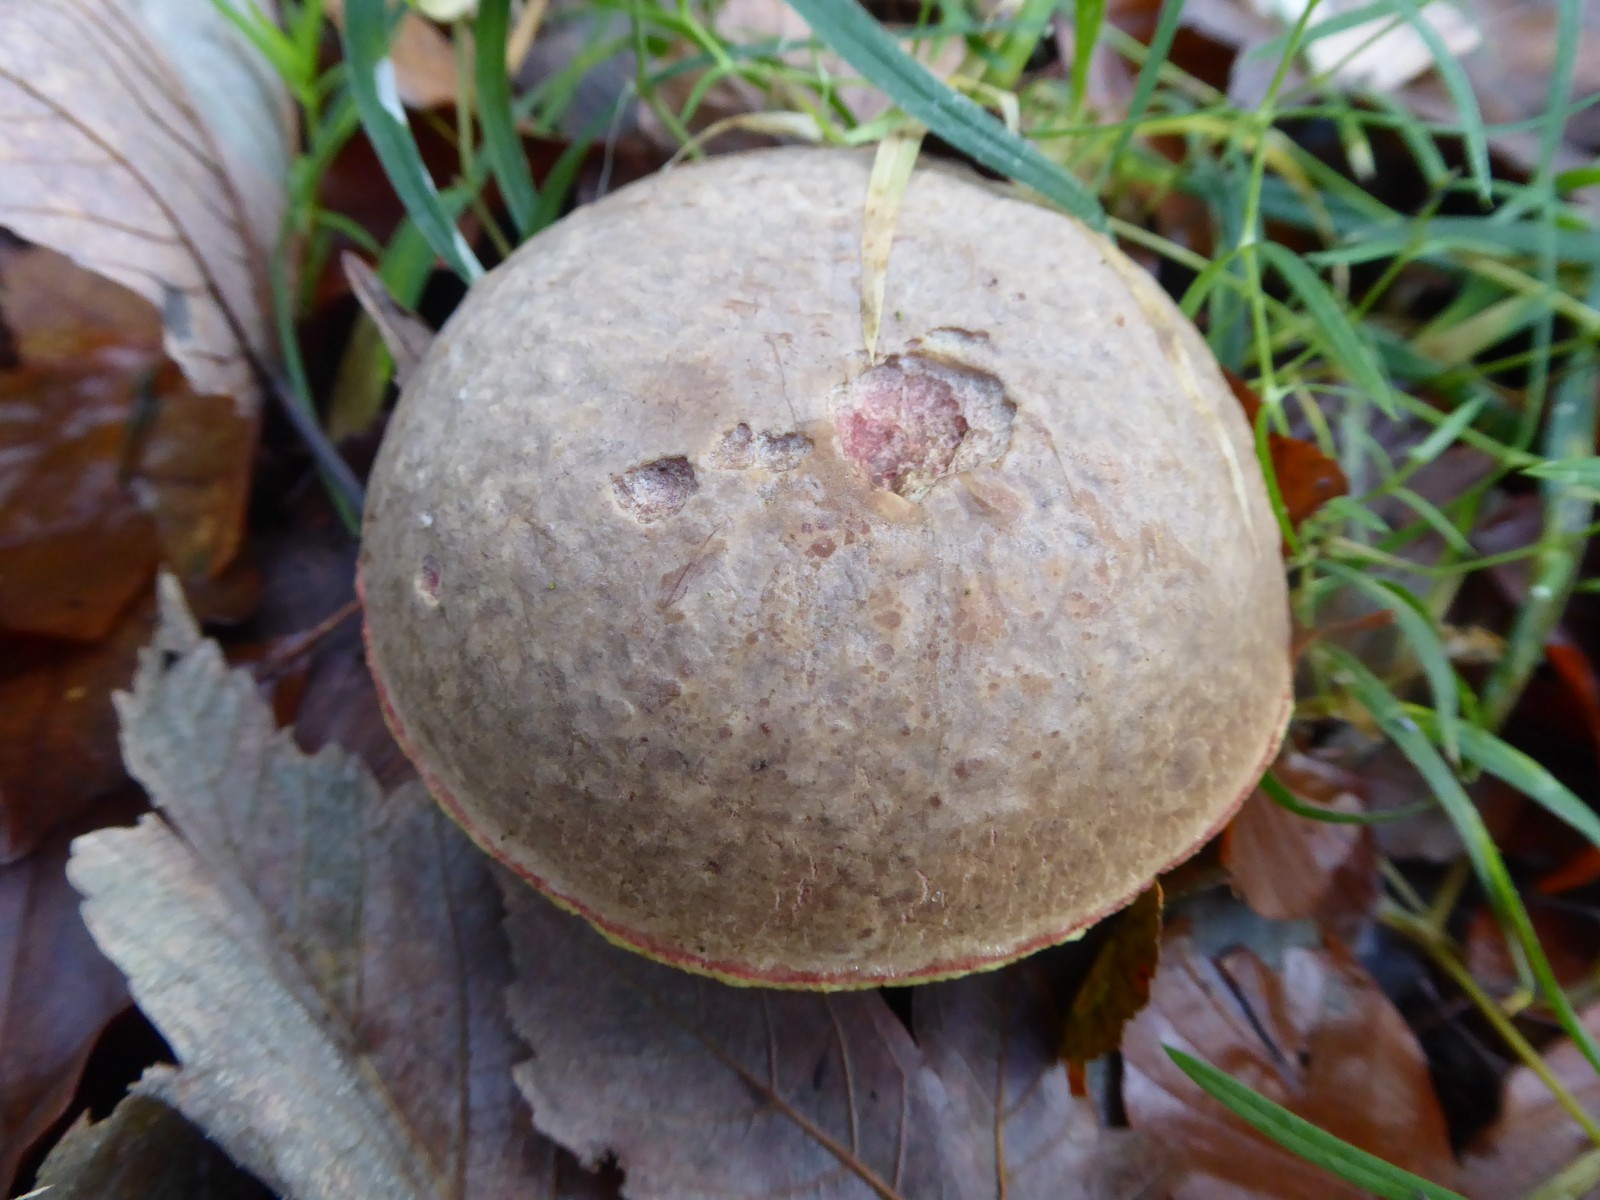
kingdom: Fungi
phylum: Basidiomycota
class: Agaricomycetes
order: Boletales
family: Boletaceae
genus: Xerocomellus
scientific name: Xerocomellus pruinatus
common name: dugget rørhat
